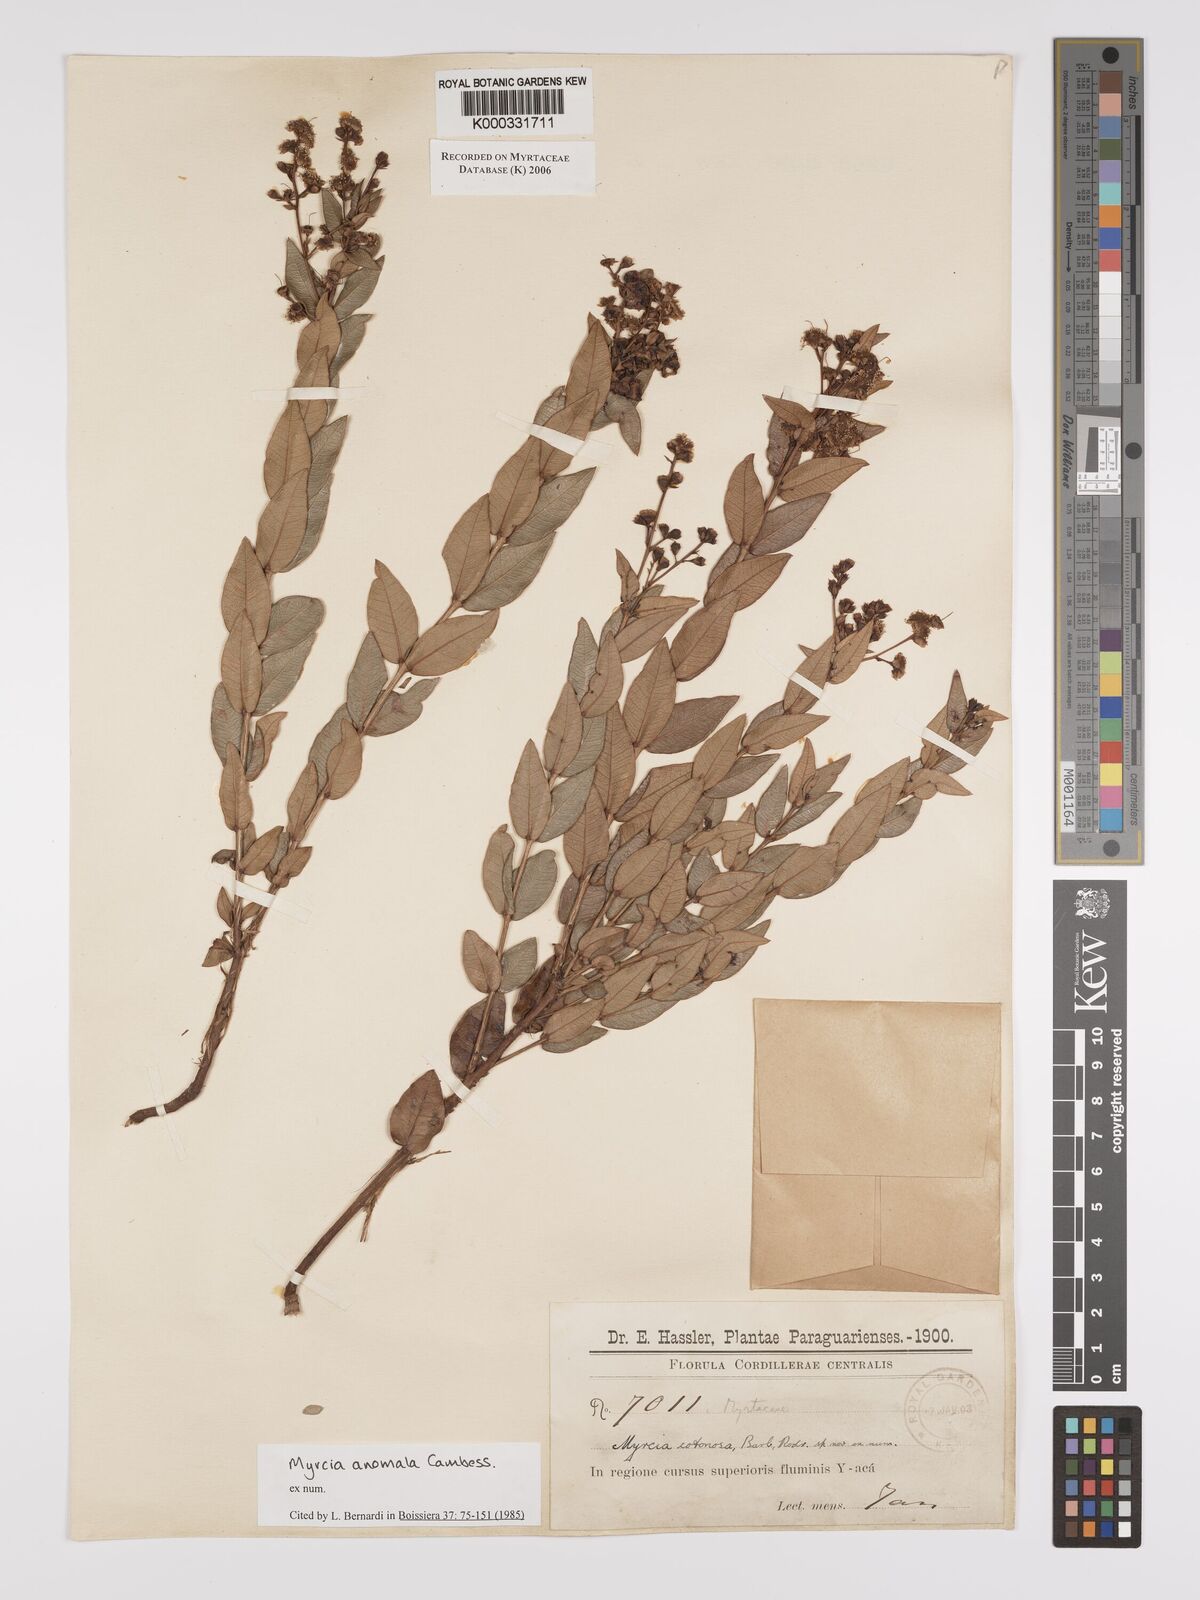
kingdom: Plantae
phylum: Tracheophyta
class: Magnoliopsida
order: Myrtales
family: Myrtaceae
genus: Myrcia
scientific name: Myrcia anomala
